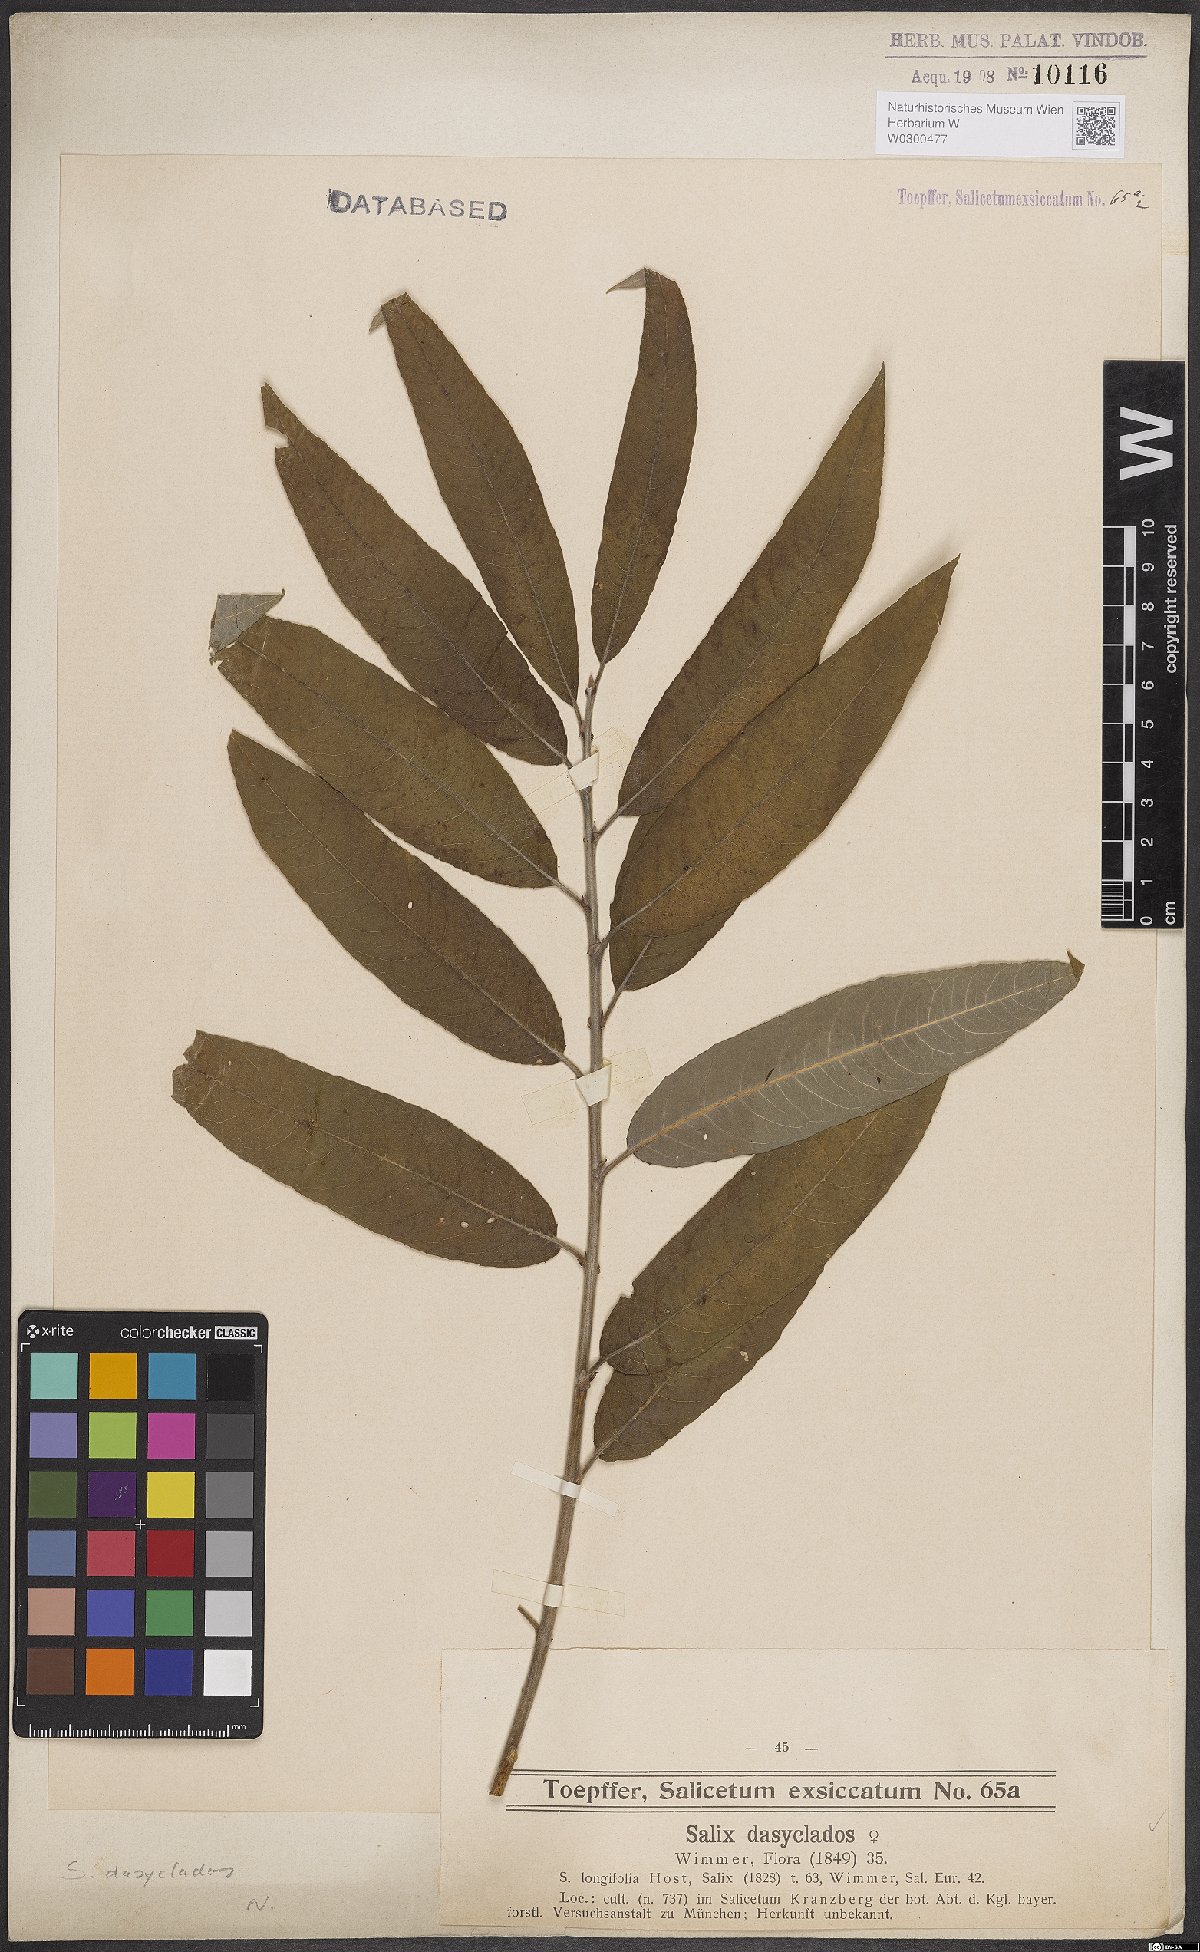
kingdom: Plantae
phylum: Tracheophyta
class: Magnoliopsida
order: Malpighiales
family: Salicaceae
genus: Salix
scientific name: Salix gmelinii
